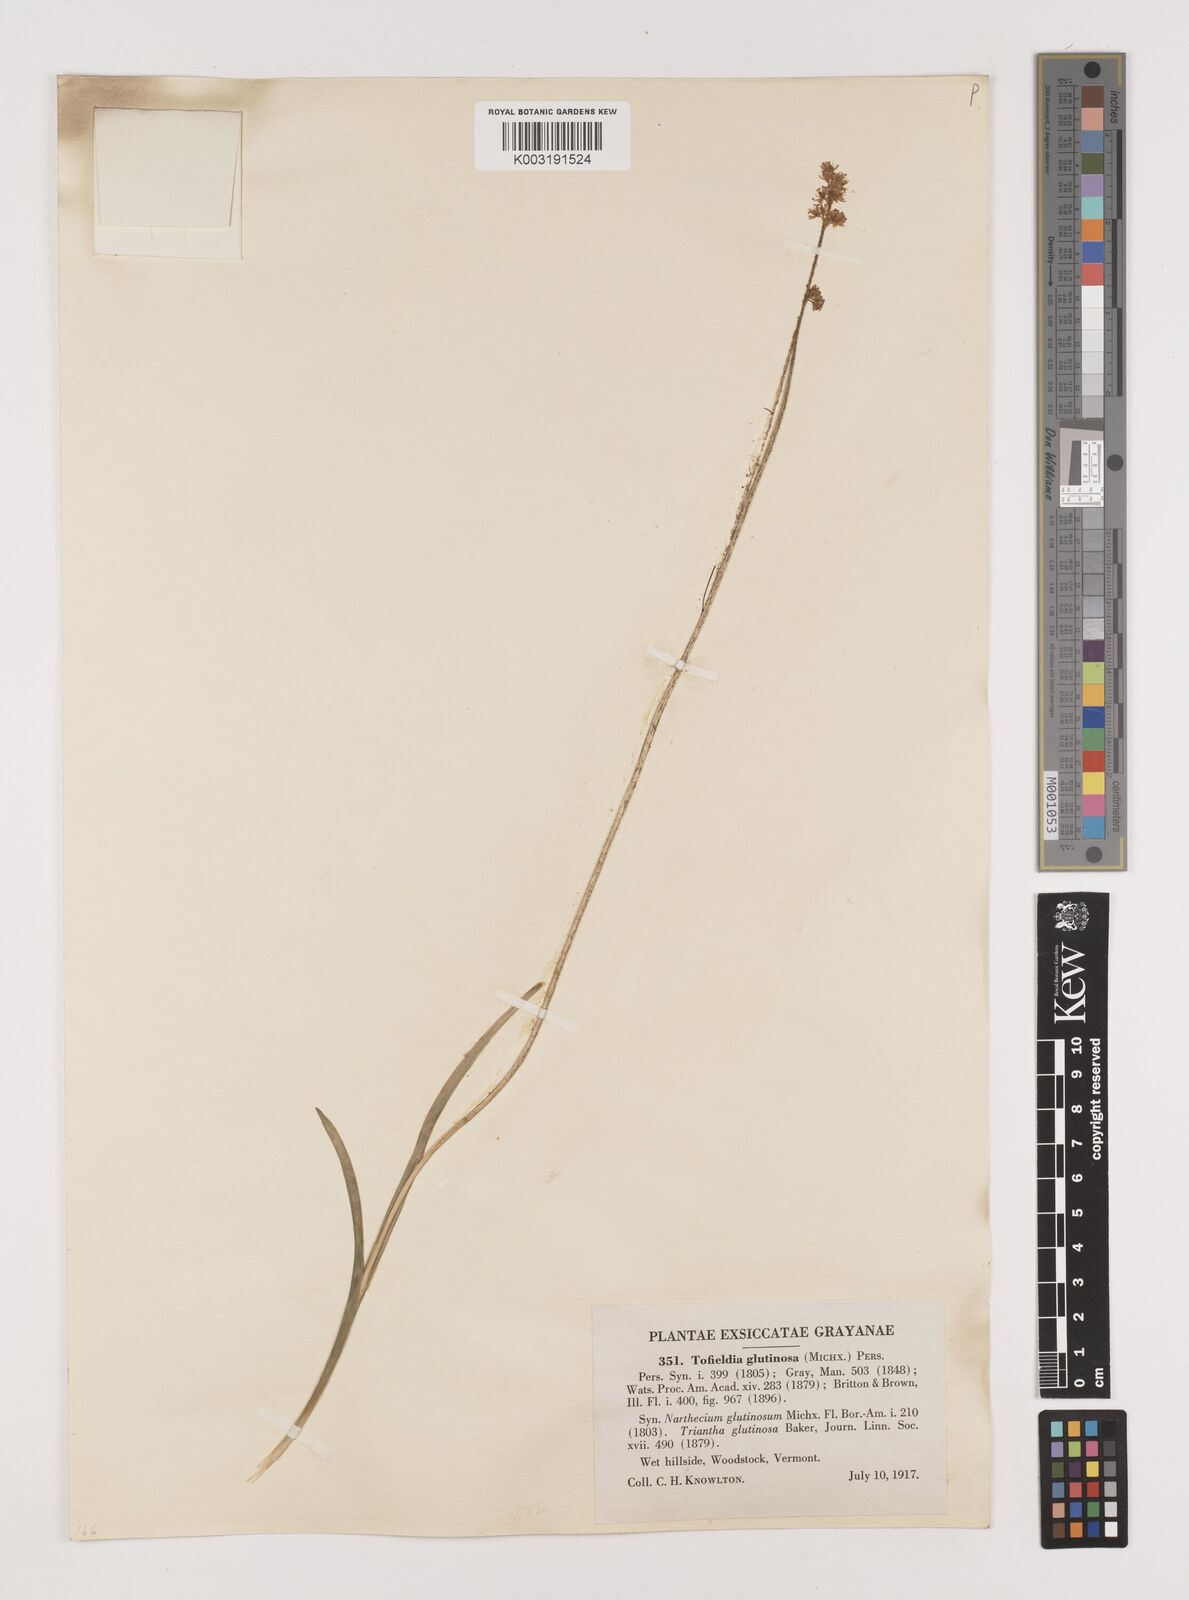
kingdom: Plantae
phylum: Tracheophyta
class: Liliopsida
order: Alismatales
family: Tofieldiaceae
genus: Triantha
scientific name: Triantha glutinosa
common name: Glutinous tofieldia
